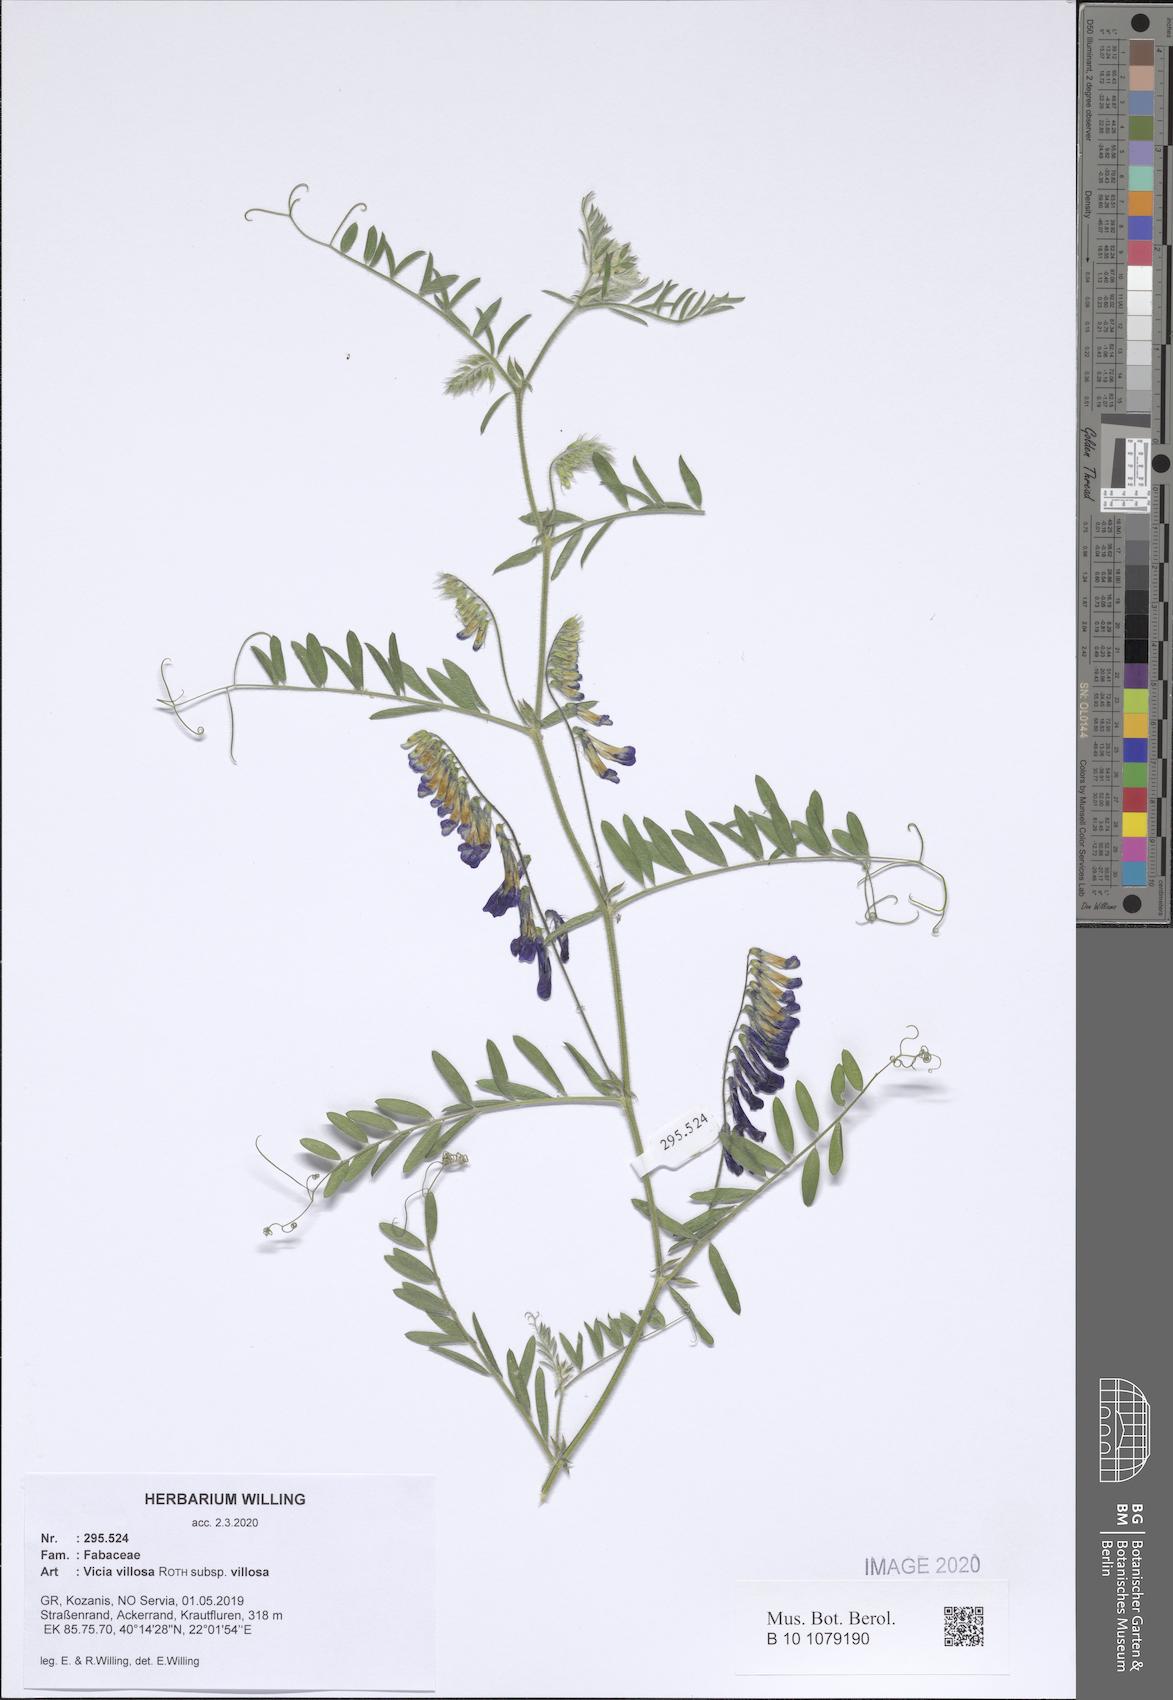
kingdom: Plantae
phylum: Tracheophyta
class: Magnoliopsida
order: Fabales
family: Fabaceae
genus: Vicia
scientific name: Vicia villosa
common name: Fodder vetch
